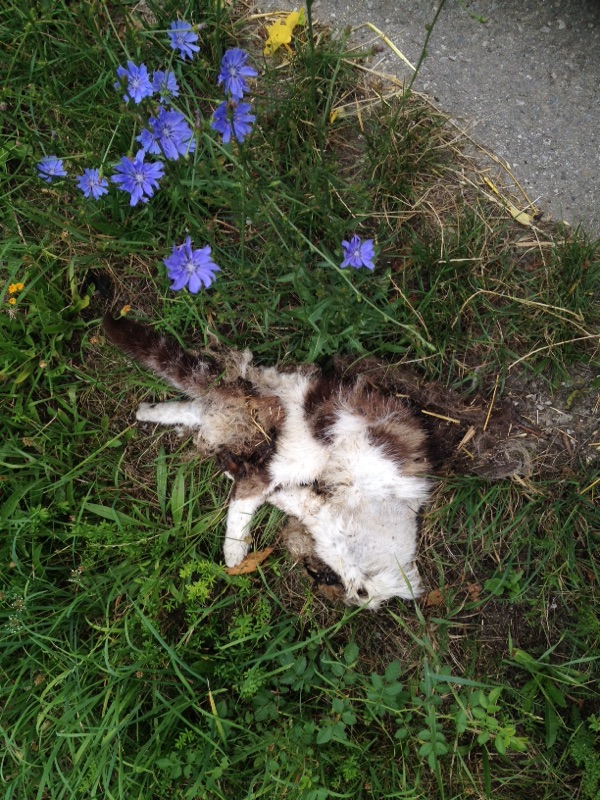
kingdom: Animalia
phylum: Chordata
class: Mammalia
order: Carnivora
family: Felidae
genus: Felis
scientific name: Felis catus
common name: Domestic cat
